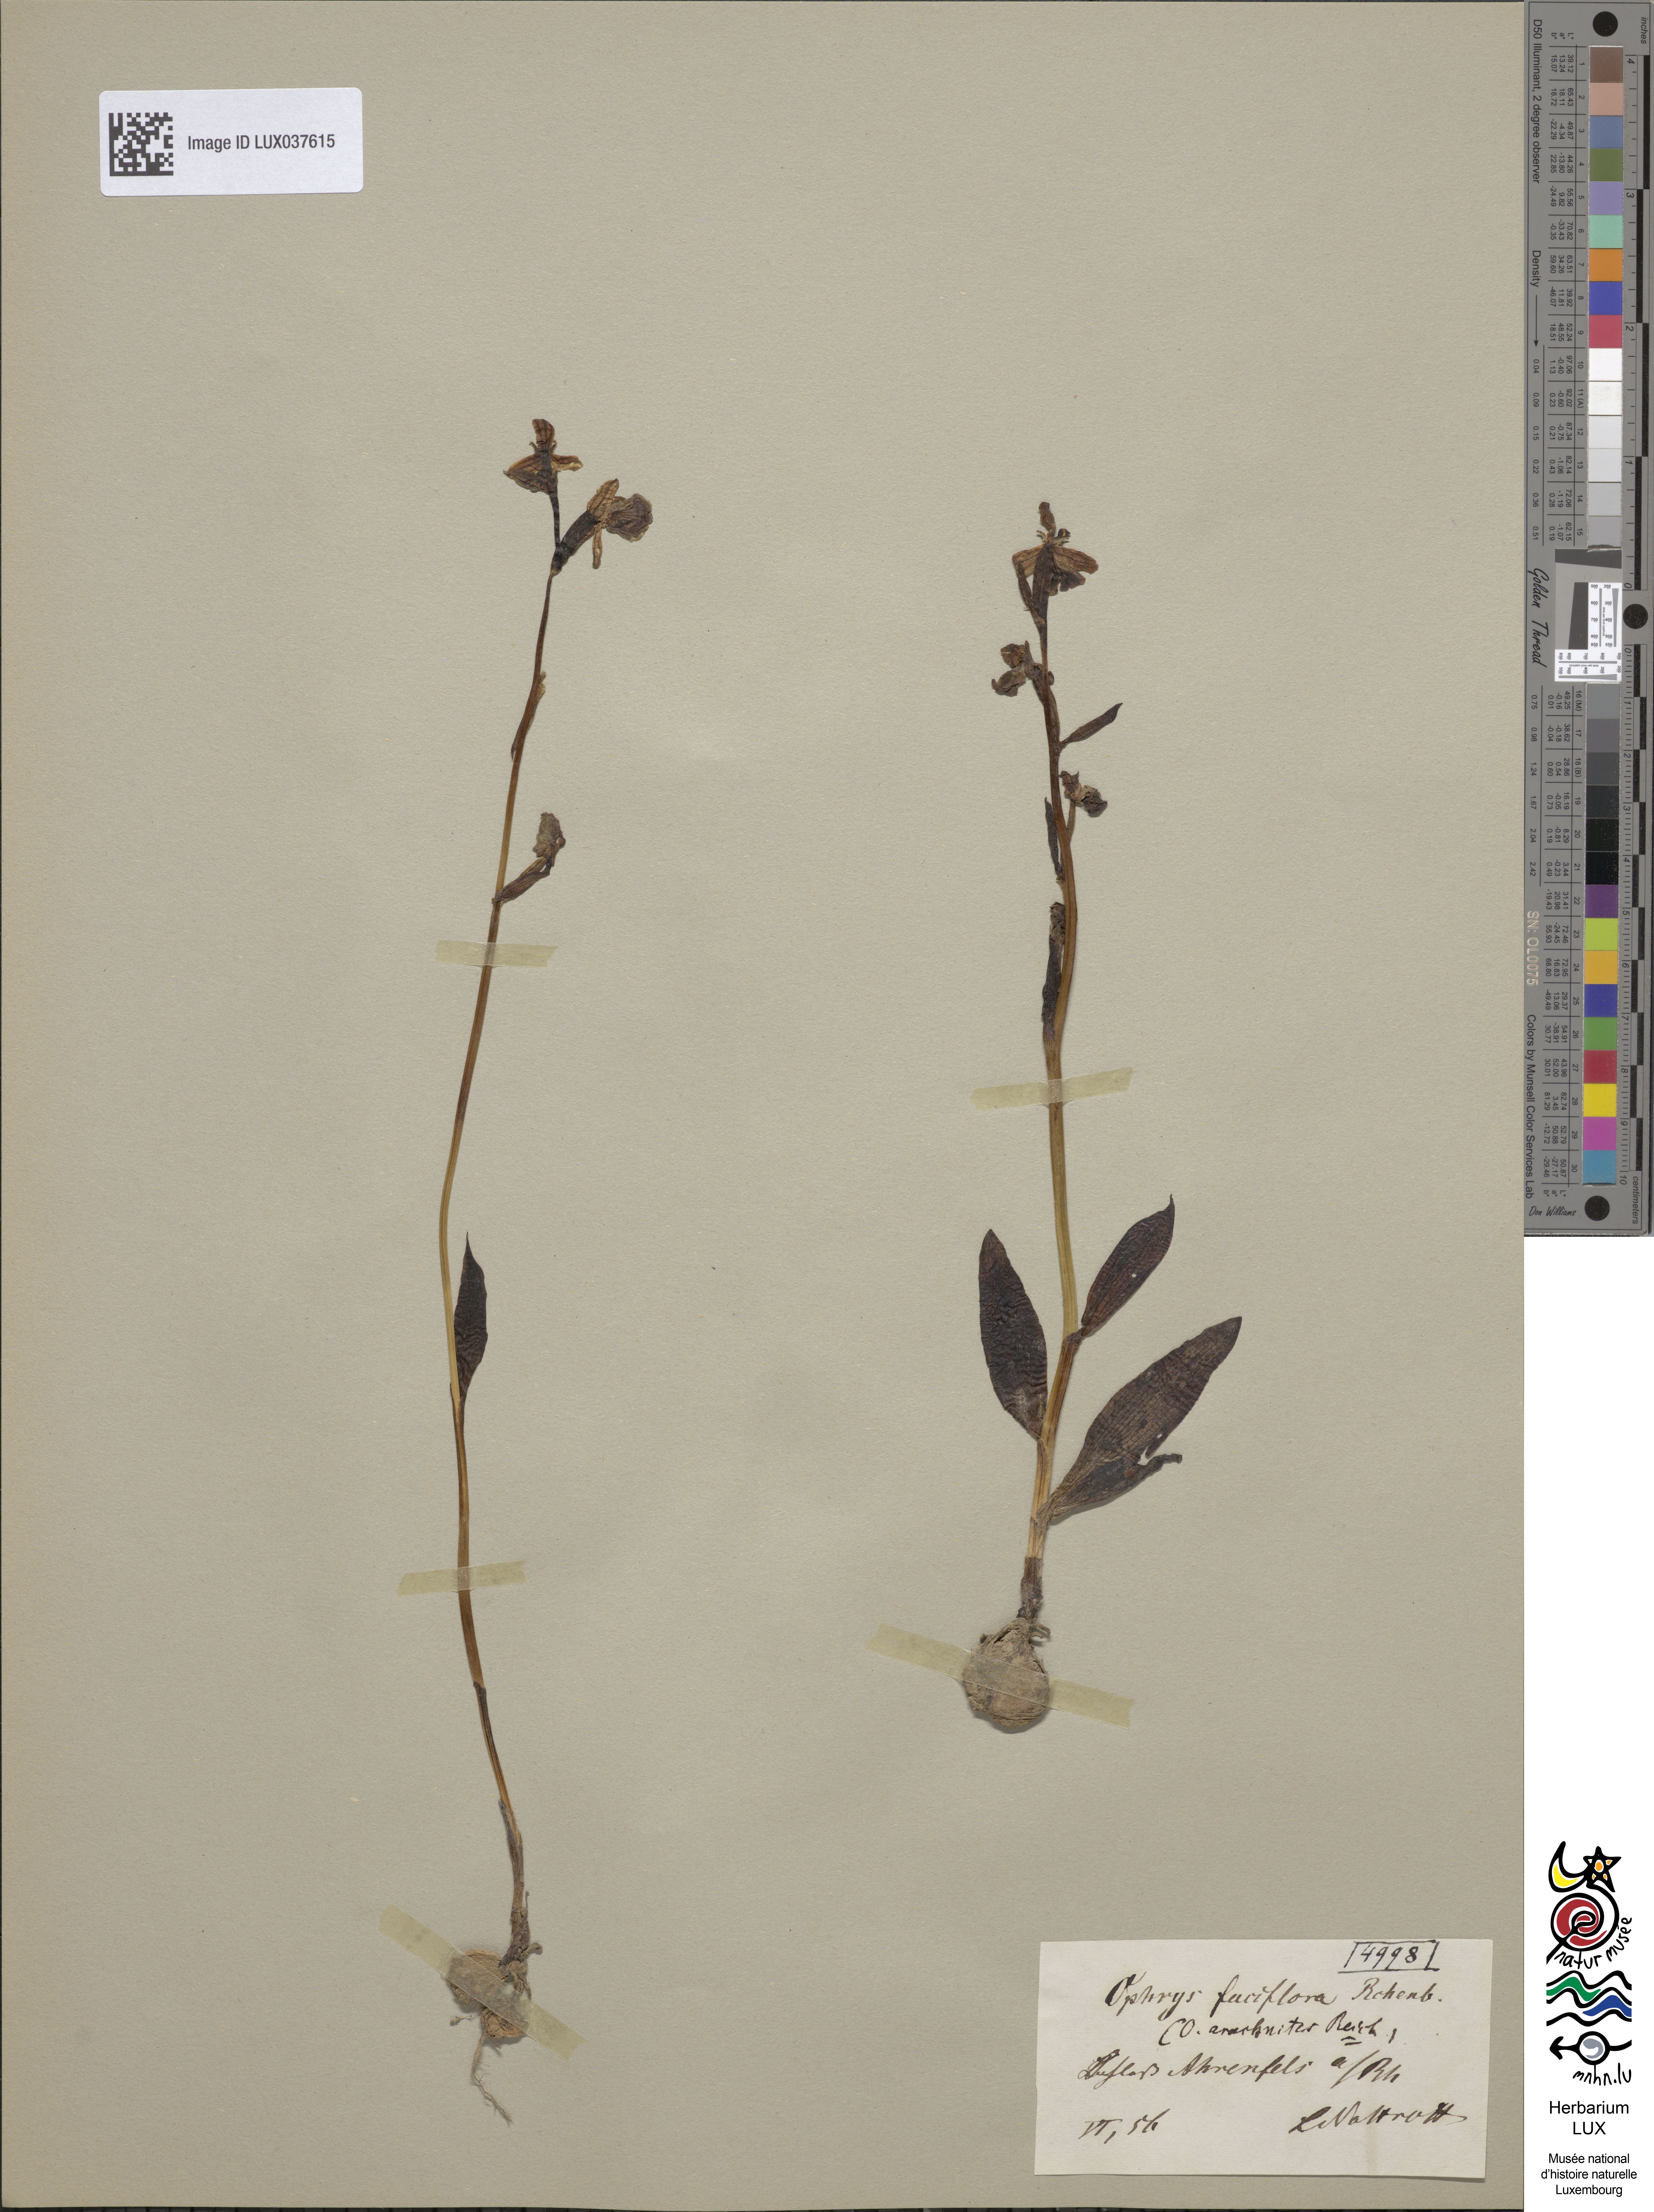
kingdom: Plantae
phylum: Tracheophyta
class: Liliopsida
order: Asparagales
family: Orchidaceae
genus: Ophrys
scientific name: Ophrys holosericea
